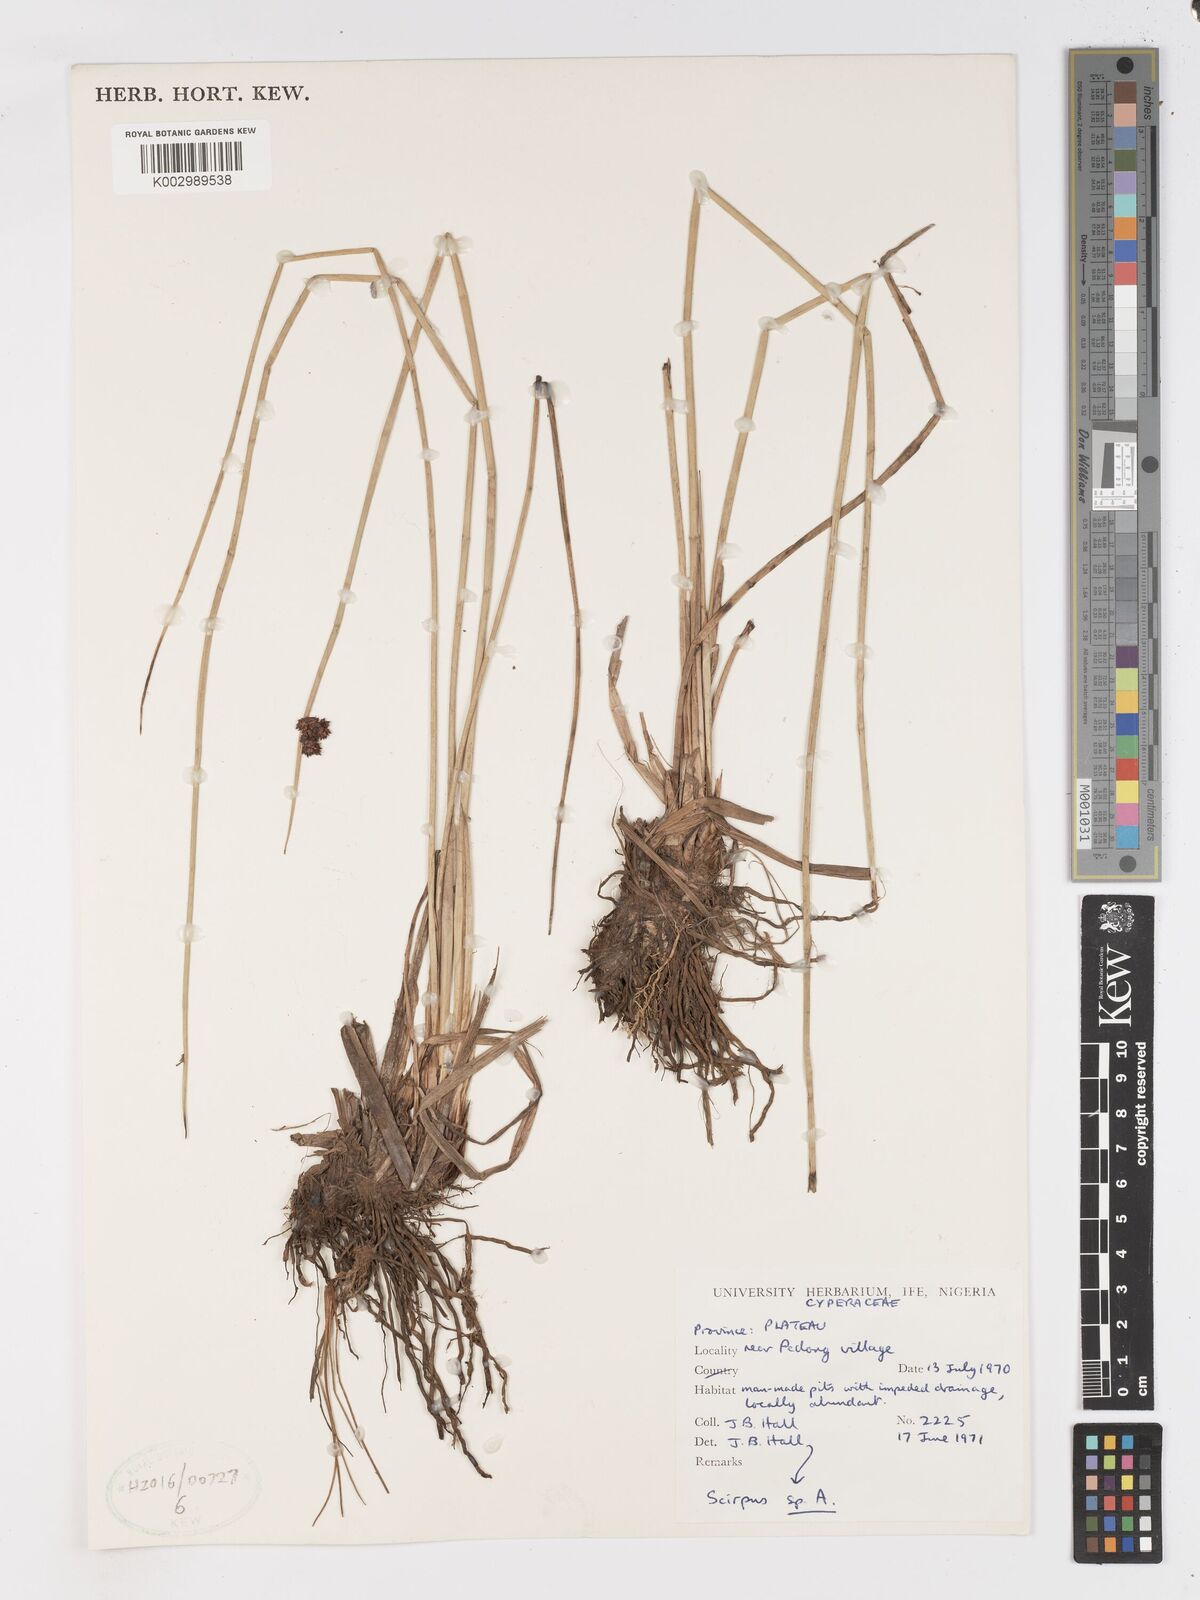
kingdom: Plantae
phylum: Tracheophyta
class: Liliopsida
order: Poales
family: Cyperaceae
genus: Schoenoplectus
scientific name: Schoenoplectus
